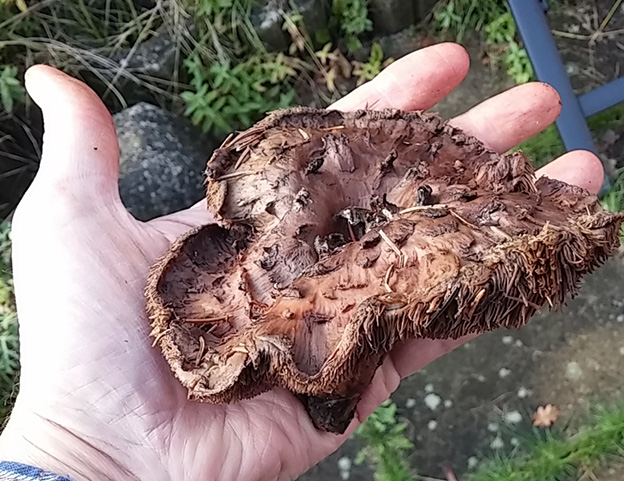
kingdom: Fungi
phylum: Basidiomycota
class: Agaricomycetes
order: Thelephorales
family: Bankeraceae
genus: Sarcodon
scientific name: Sarcodon imbricatus
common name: skællet kødpigsvamp
